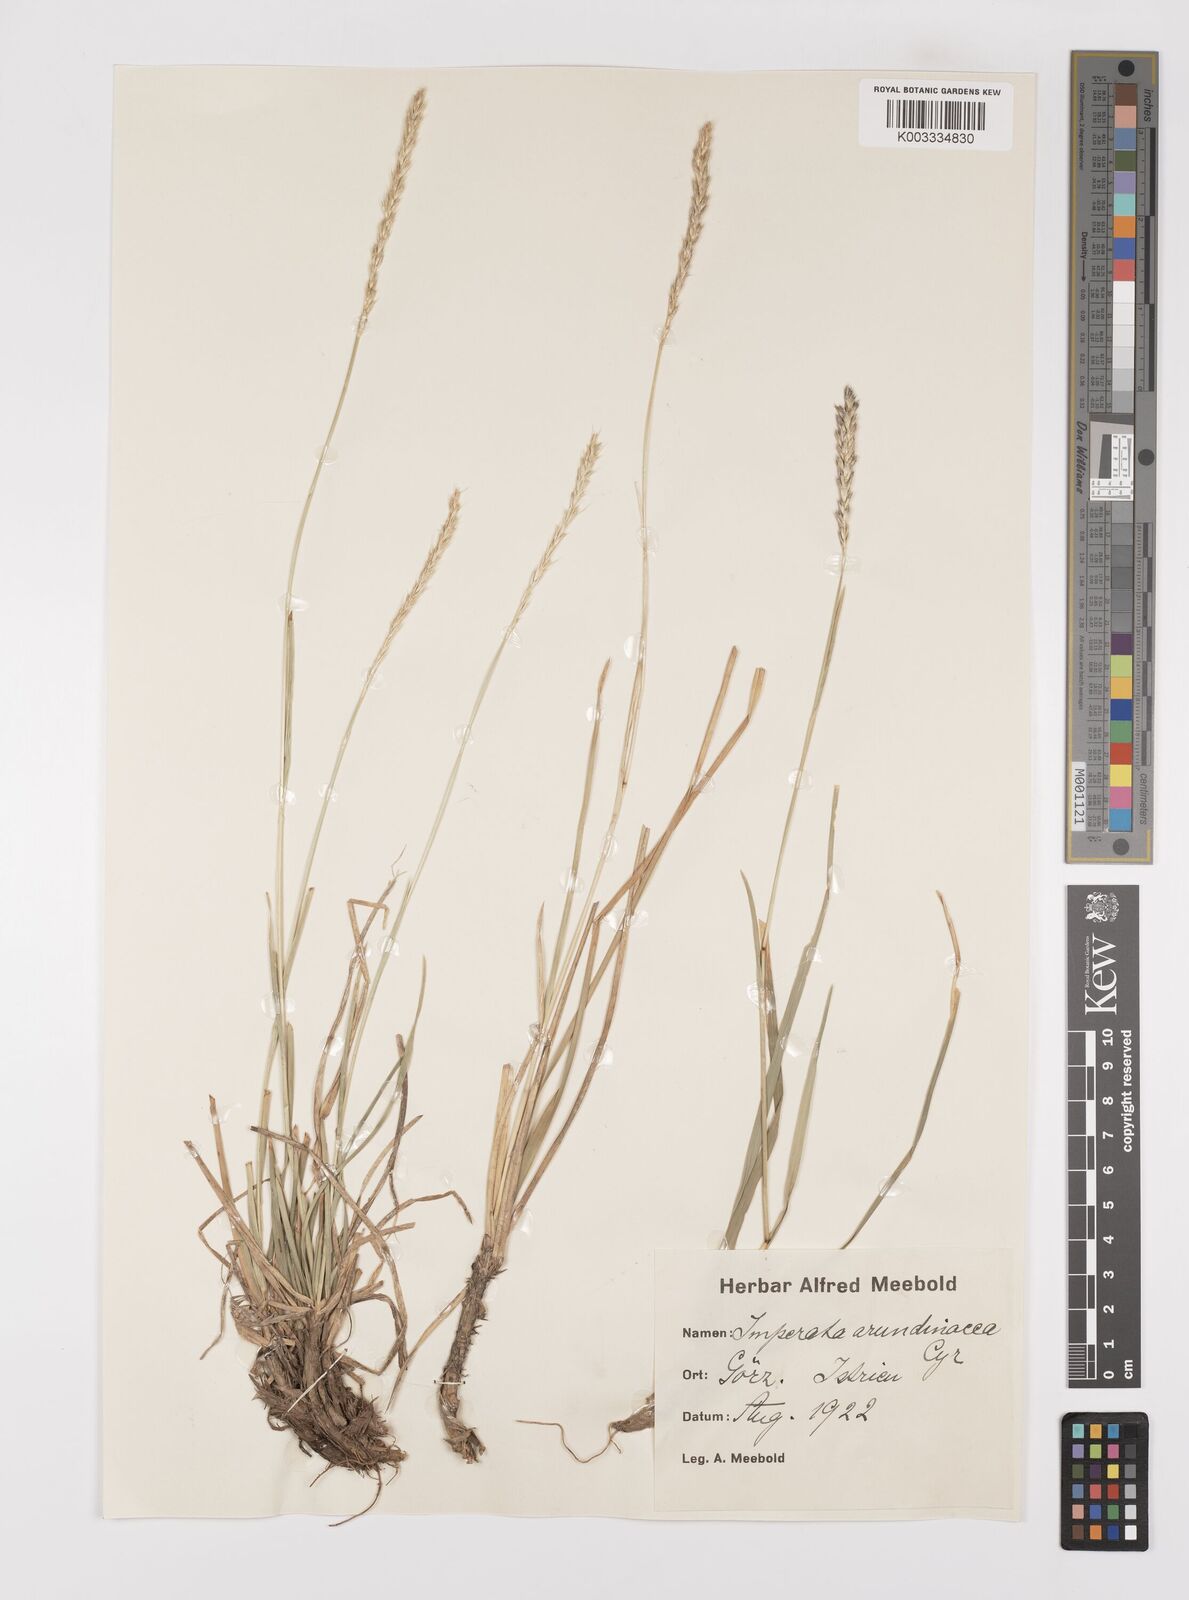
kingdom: Plantae
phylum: Tracheophyta
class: Liliopsida
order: Poales
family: Poaceae
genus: Alopecurus
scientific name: Alopecurus myosuroides
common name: Black-grass
